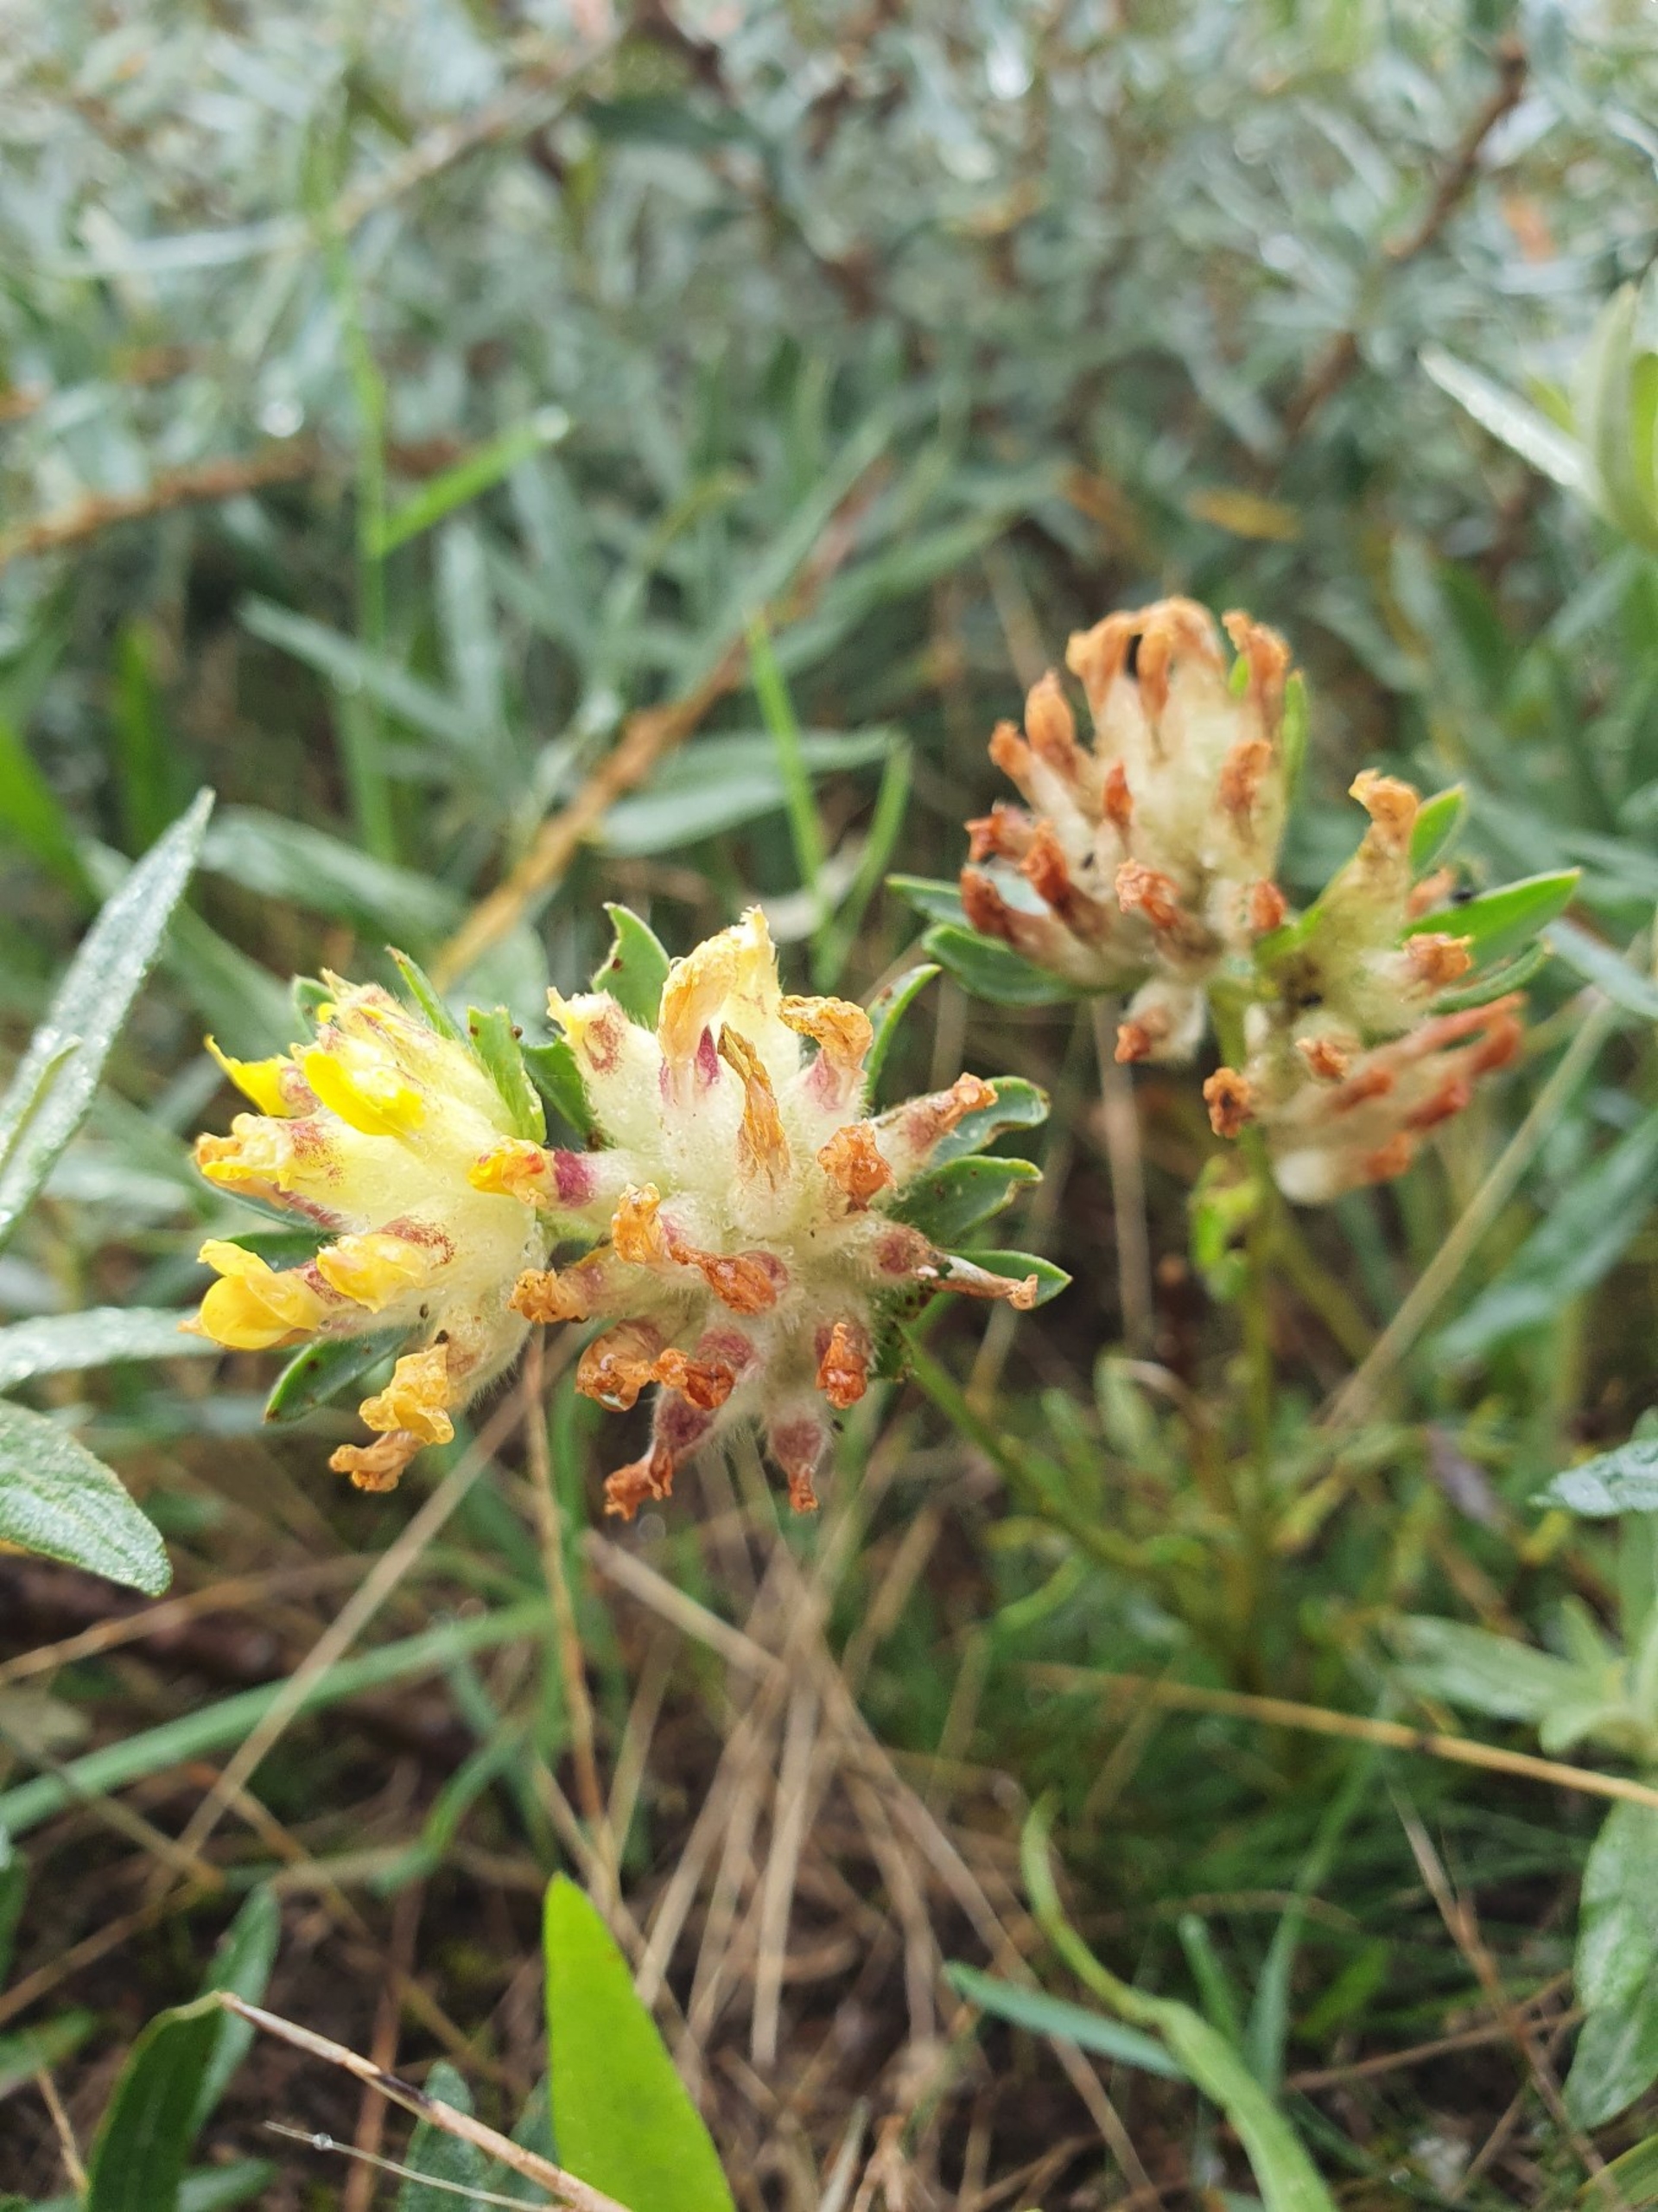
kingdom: Plantae
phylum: Tracheophyta
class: Magnoliopsida
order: Fabales
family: Fabaceae
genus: Anthyllis
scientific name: Anthyllis vulneraria
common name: Rundbælg
